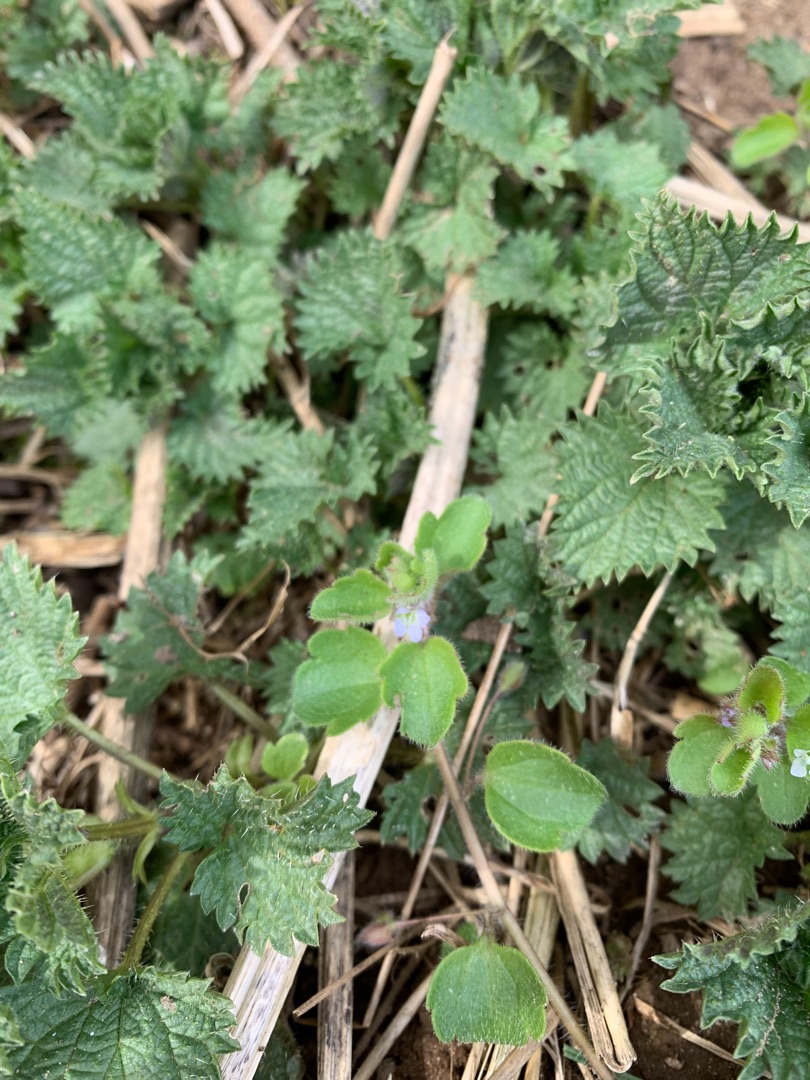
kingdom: Plantae
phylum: Tracheophyta
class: Magnoliopsida
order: Lamiales
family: Plantaginaceae
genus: Veronica
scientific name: Veronica sublobata
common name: Krat-ærenpris
